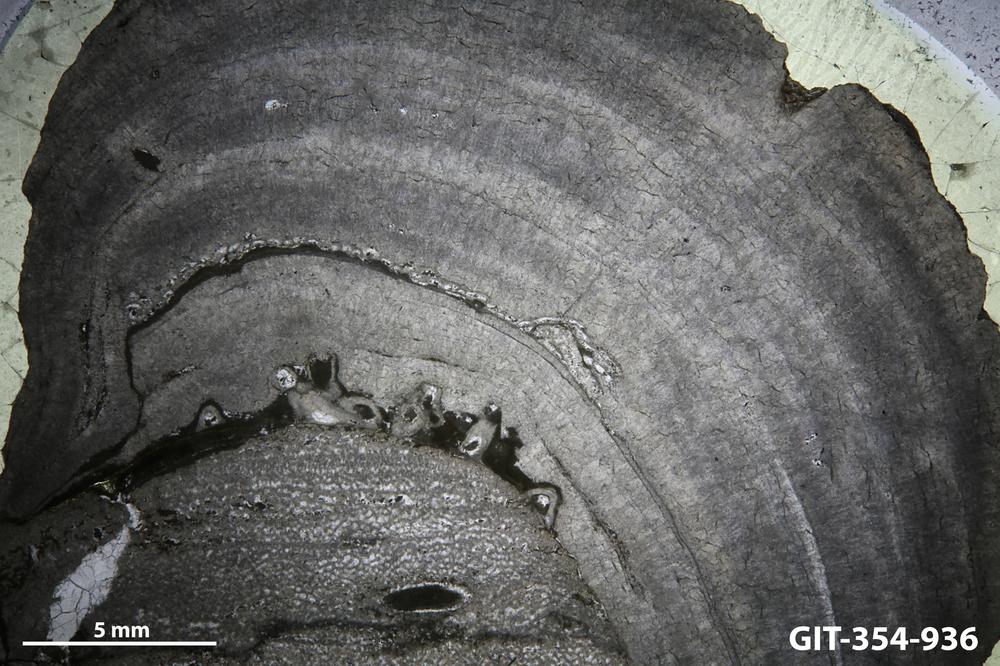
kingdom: Animalia
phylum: Porifera
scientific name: Porifera
